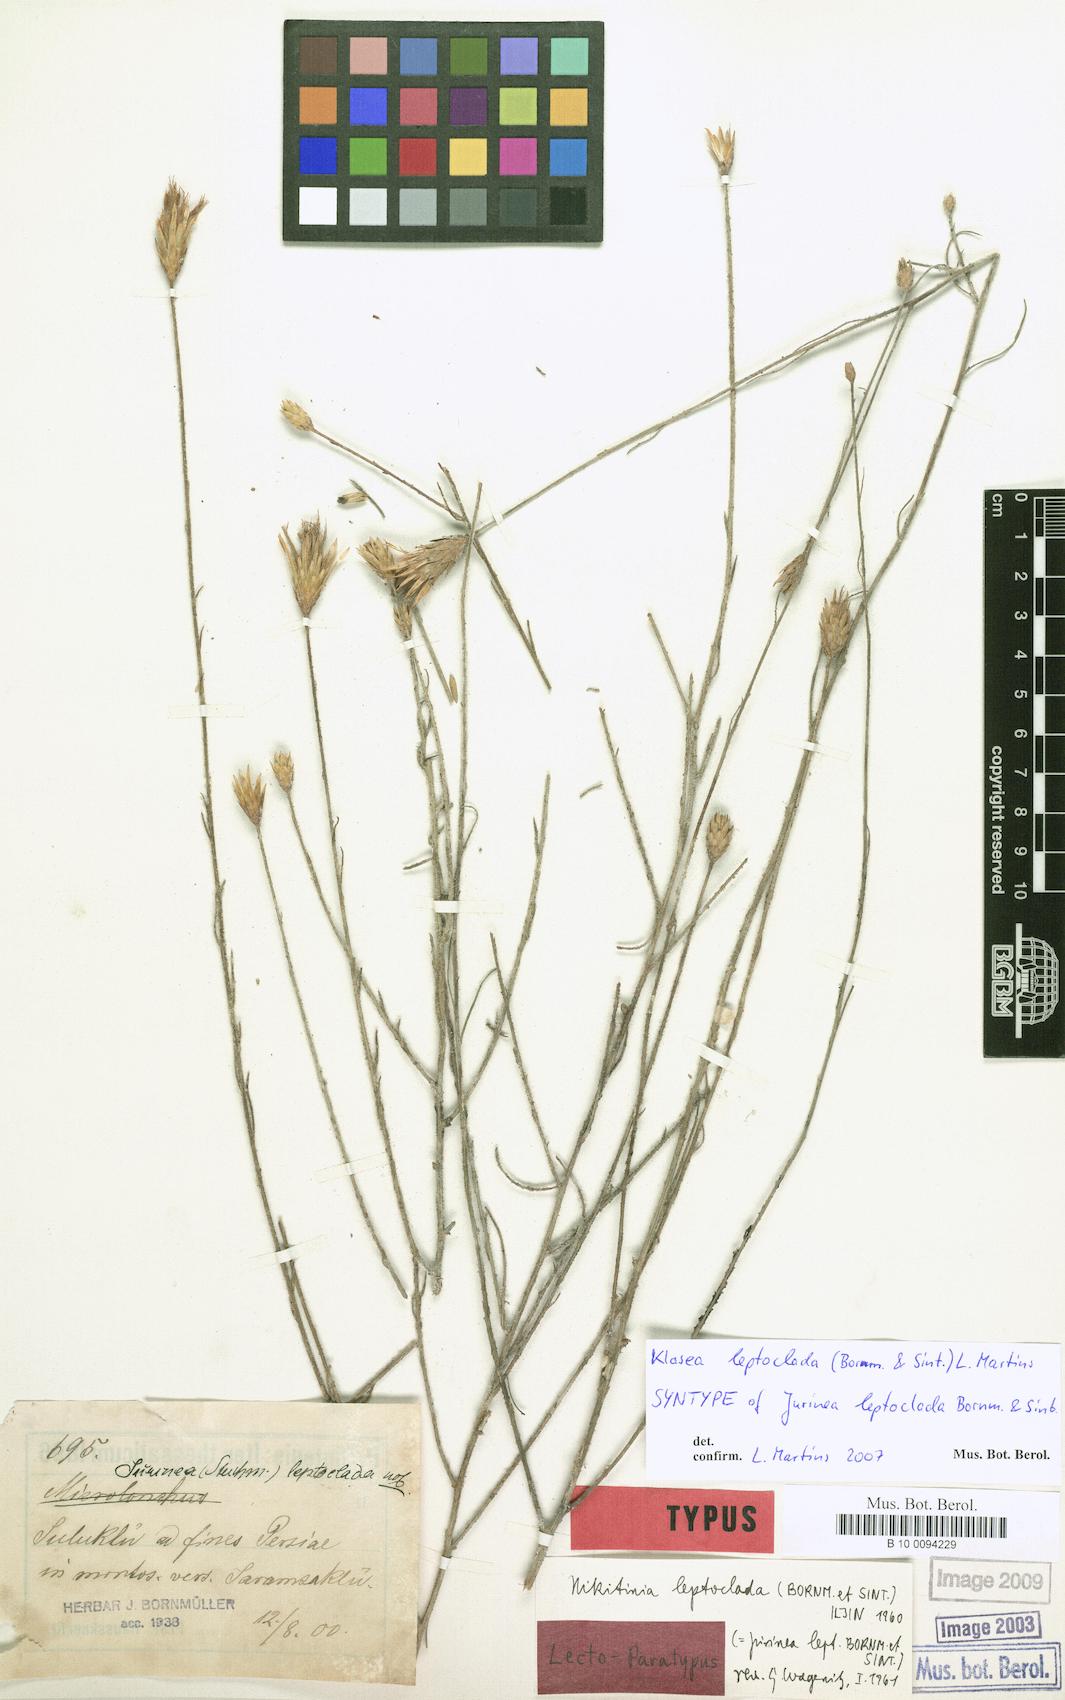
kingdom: Plantae
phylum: Tracheophyta
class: Magnoliopsida
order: Asterales
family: Asteraceae
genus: Klasea
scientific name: Klasea leptoclada
